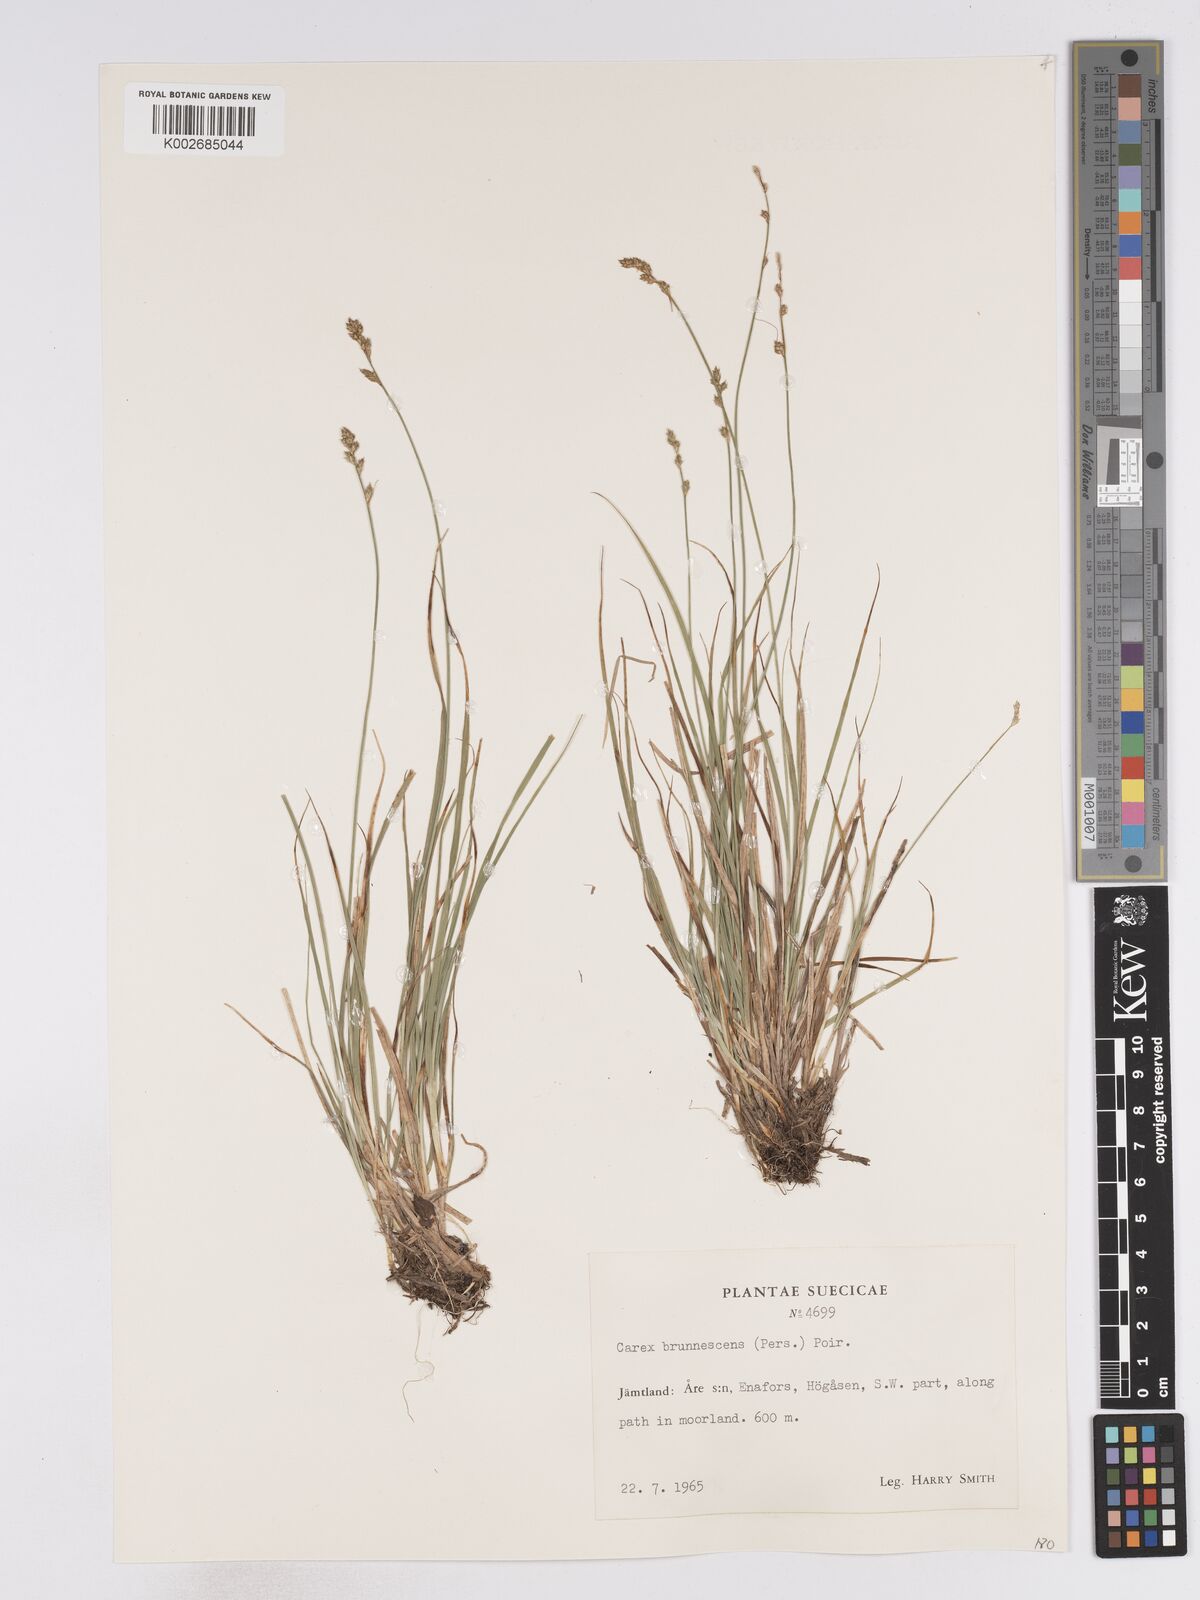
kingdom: Plantae
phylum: Tracheophyta
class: Liliopsida
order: Poales
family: Cyperaceae
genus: Carex
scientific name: Carex brunnescens
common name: Brown sedge
